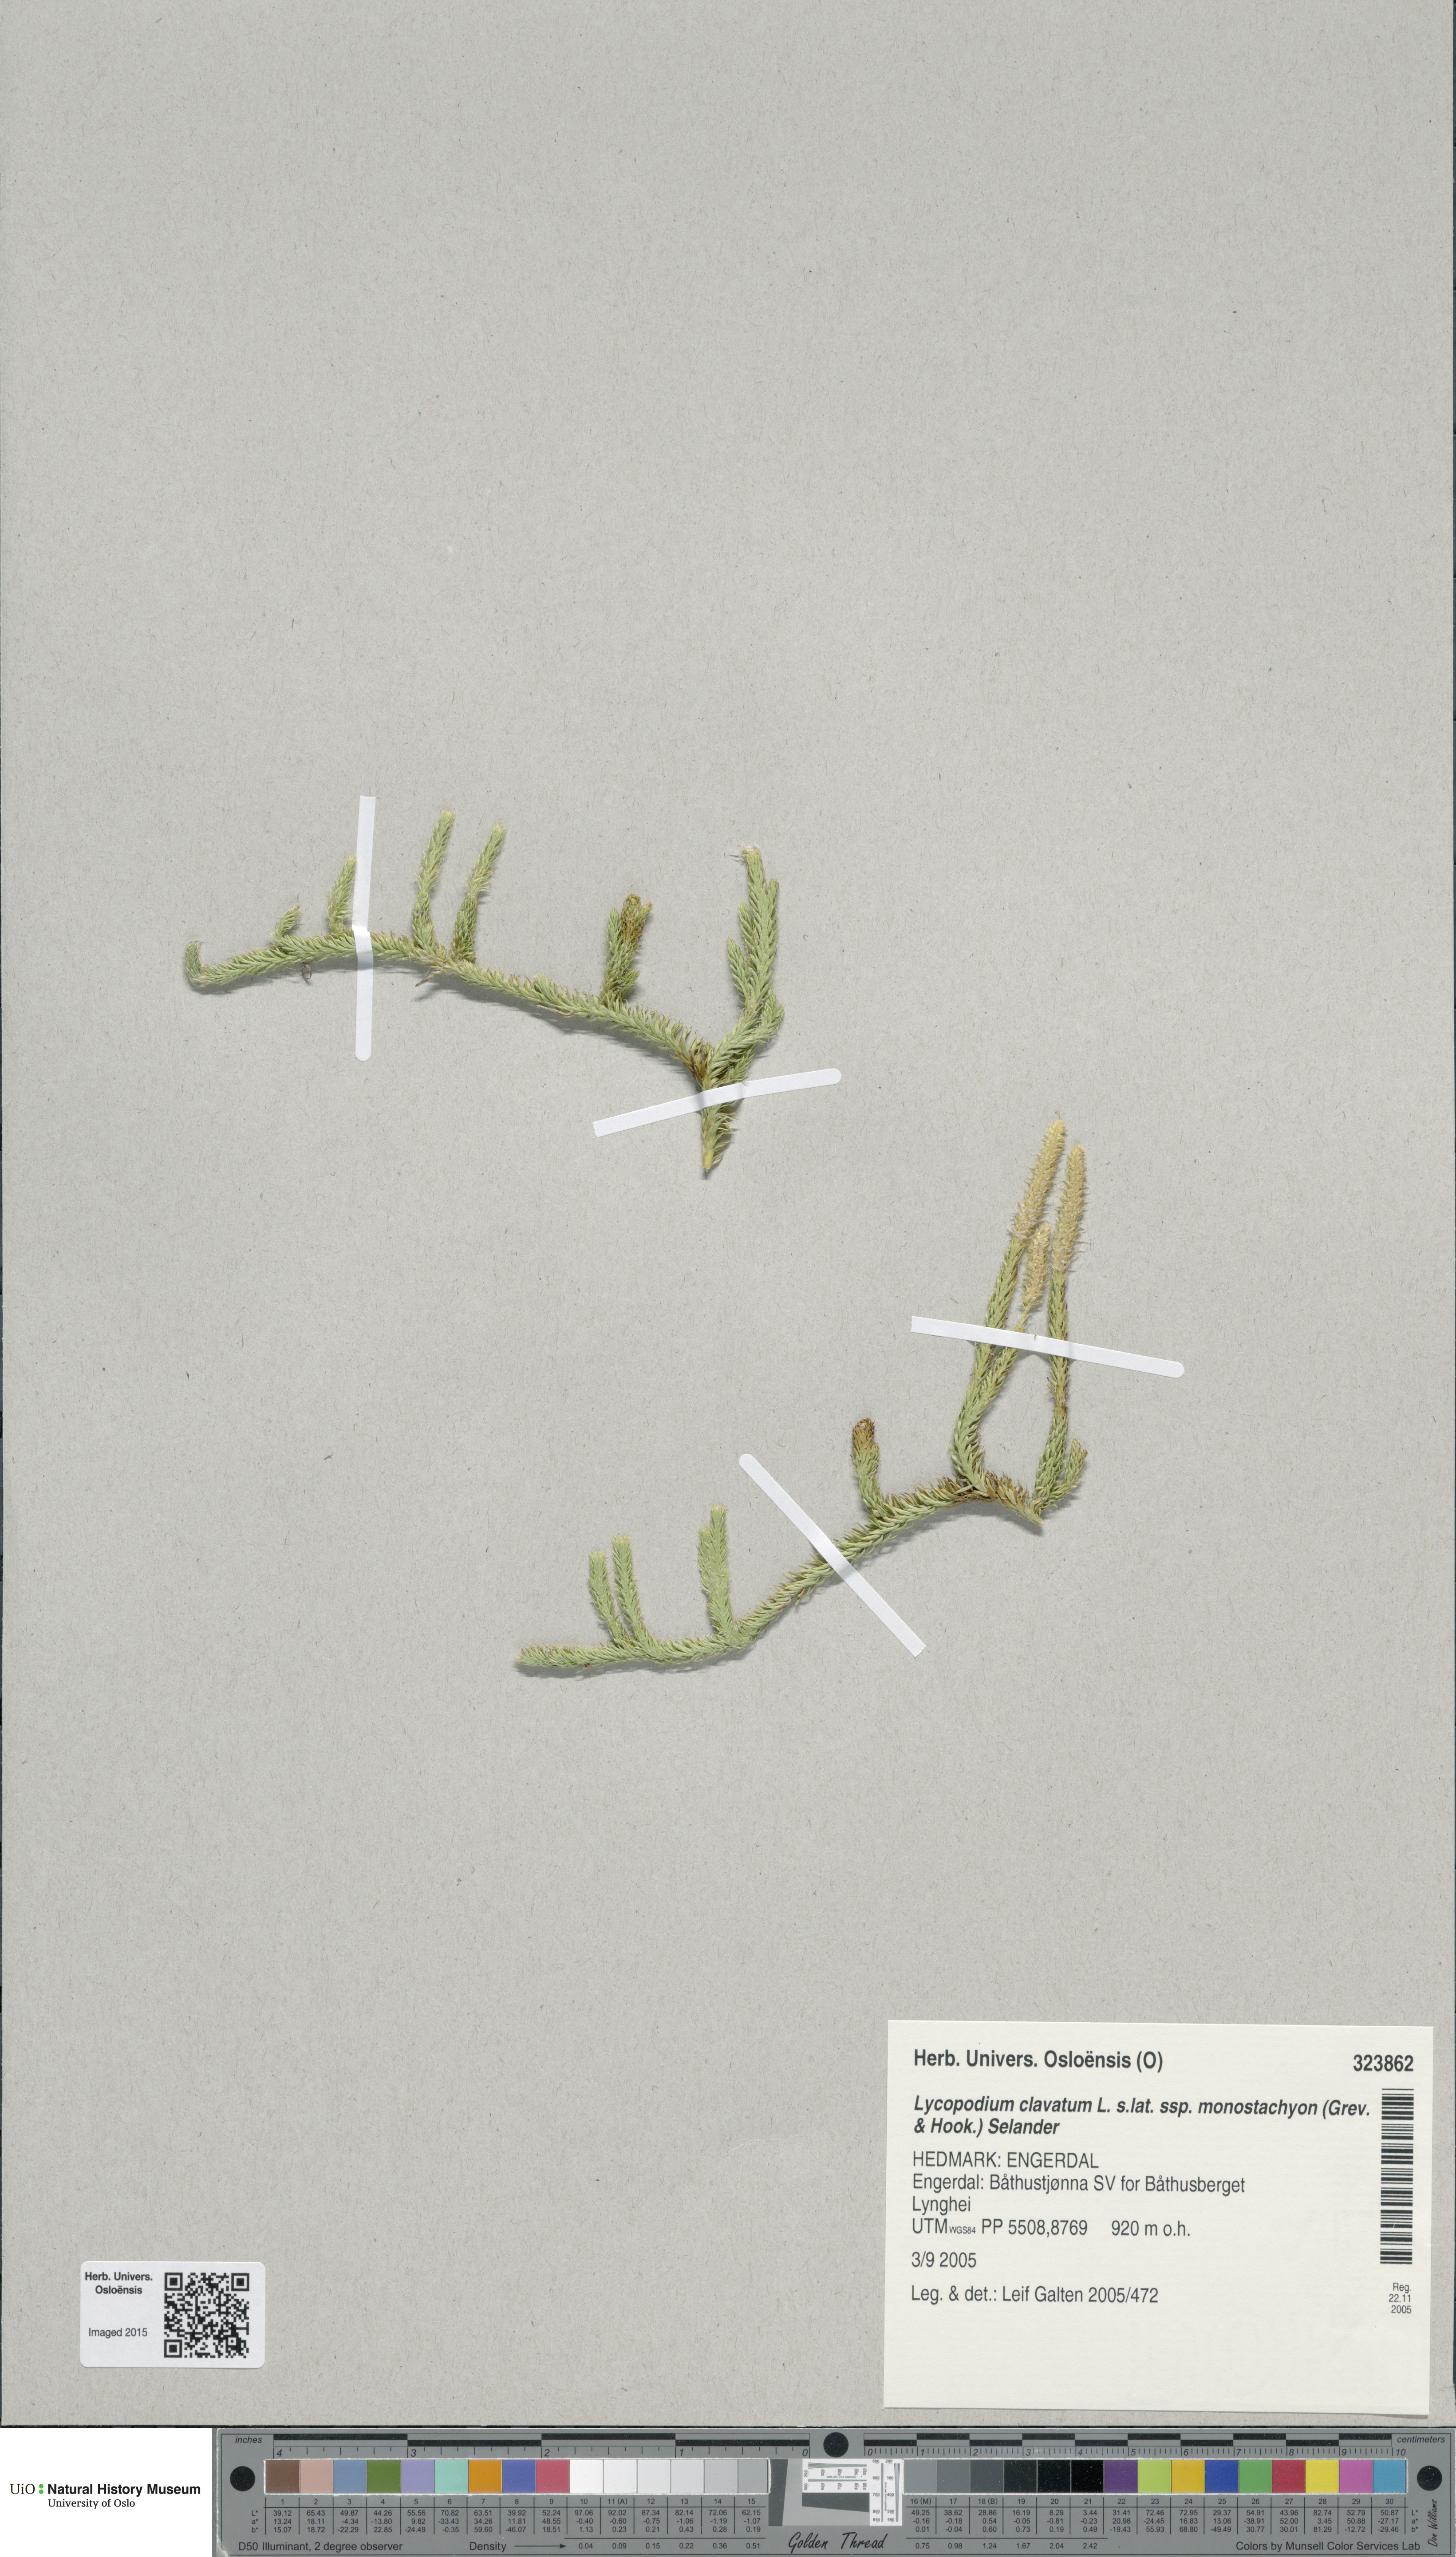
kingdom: Plantae
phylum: Tracheophyta
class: Lycopodiopsida
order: Lycopodiales
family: Lycopodiaceae
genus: Lycopodium
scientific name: Lycopodium lagopus
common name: One-cone clubmoss
